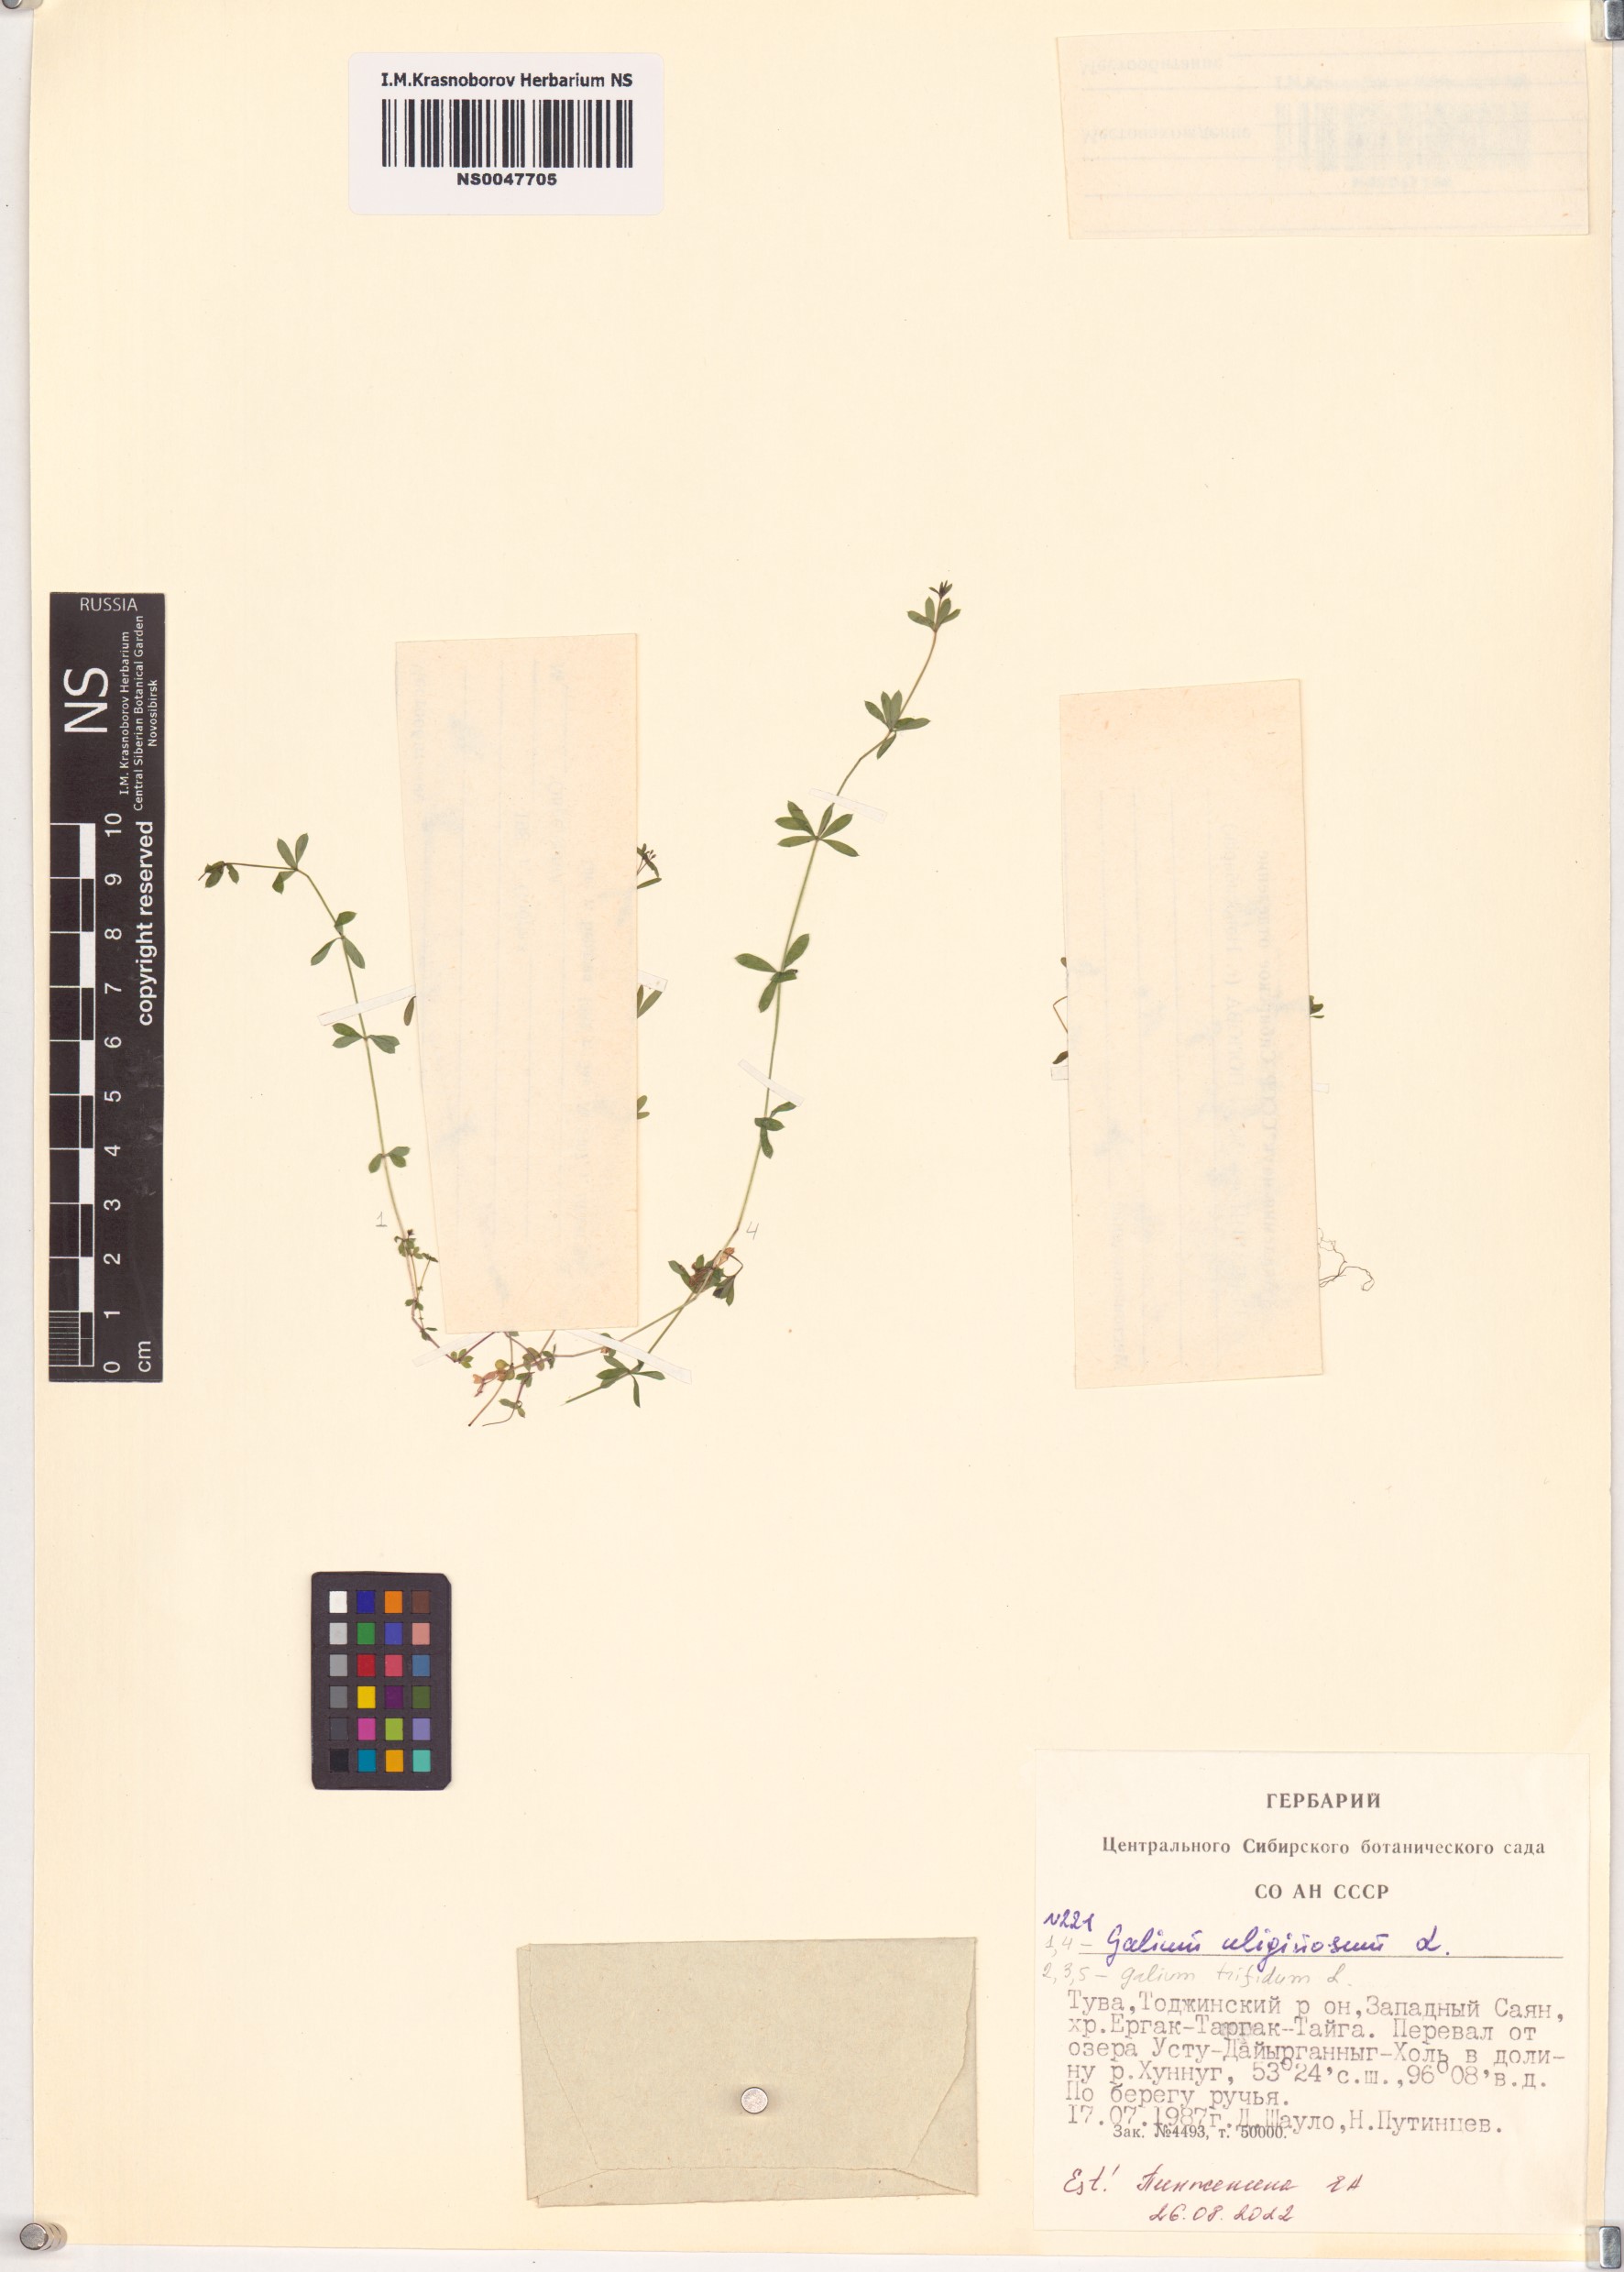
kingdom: Plantae
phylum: Tracheophyta
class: Magnoliopsida
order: Gentianales
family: Rubiaceae
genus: Galium
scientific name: Galium uliginosum
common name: Fen bedstraw
